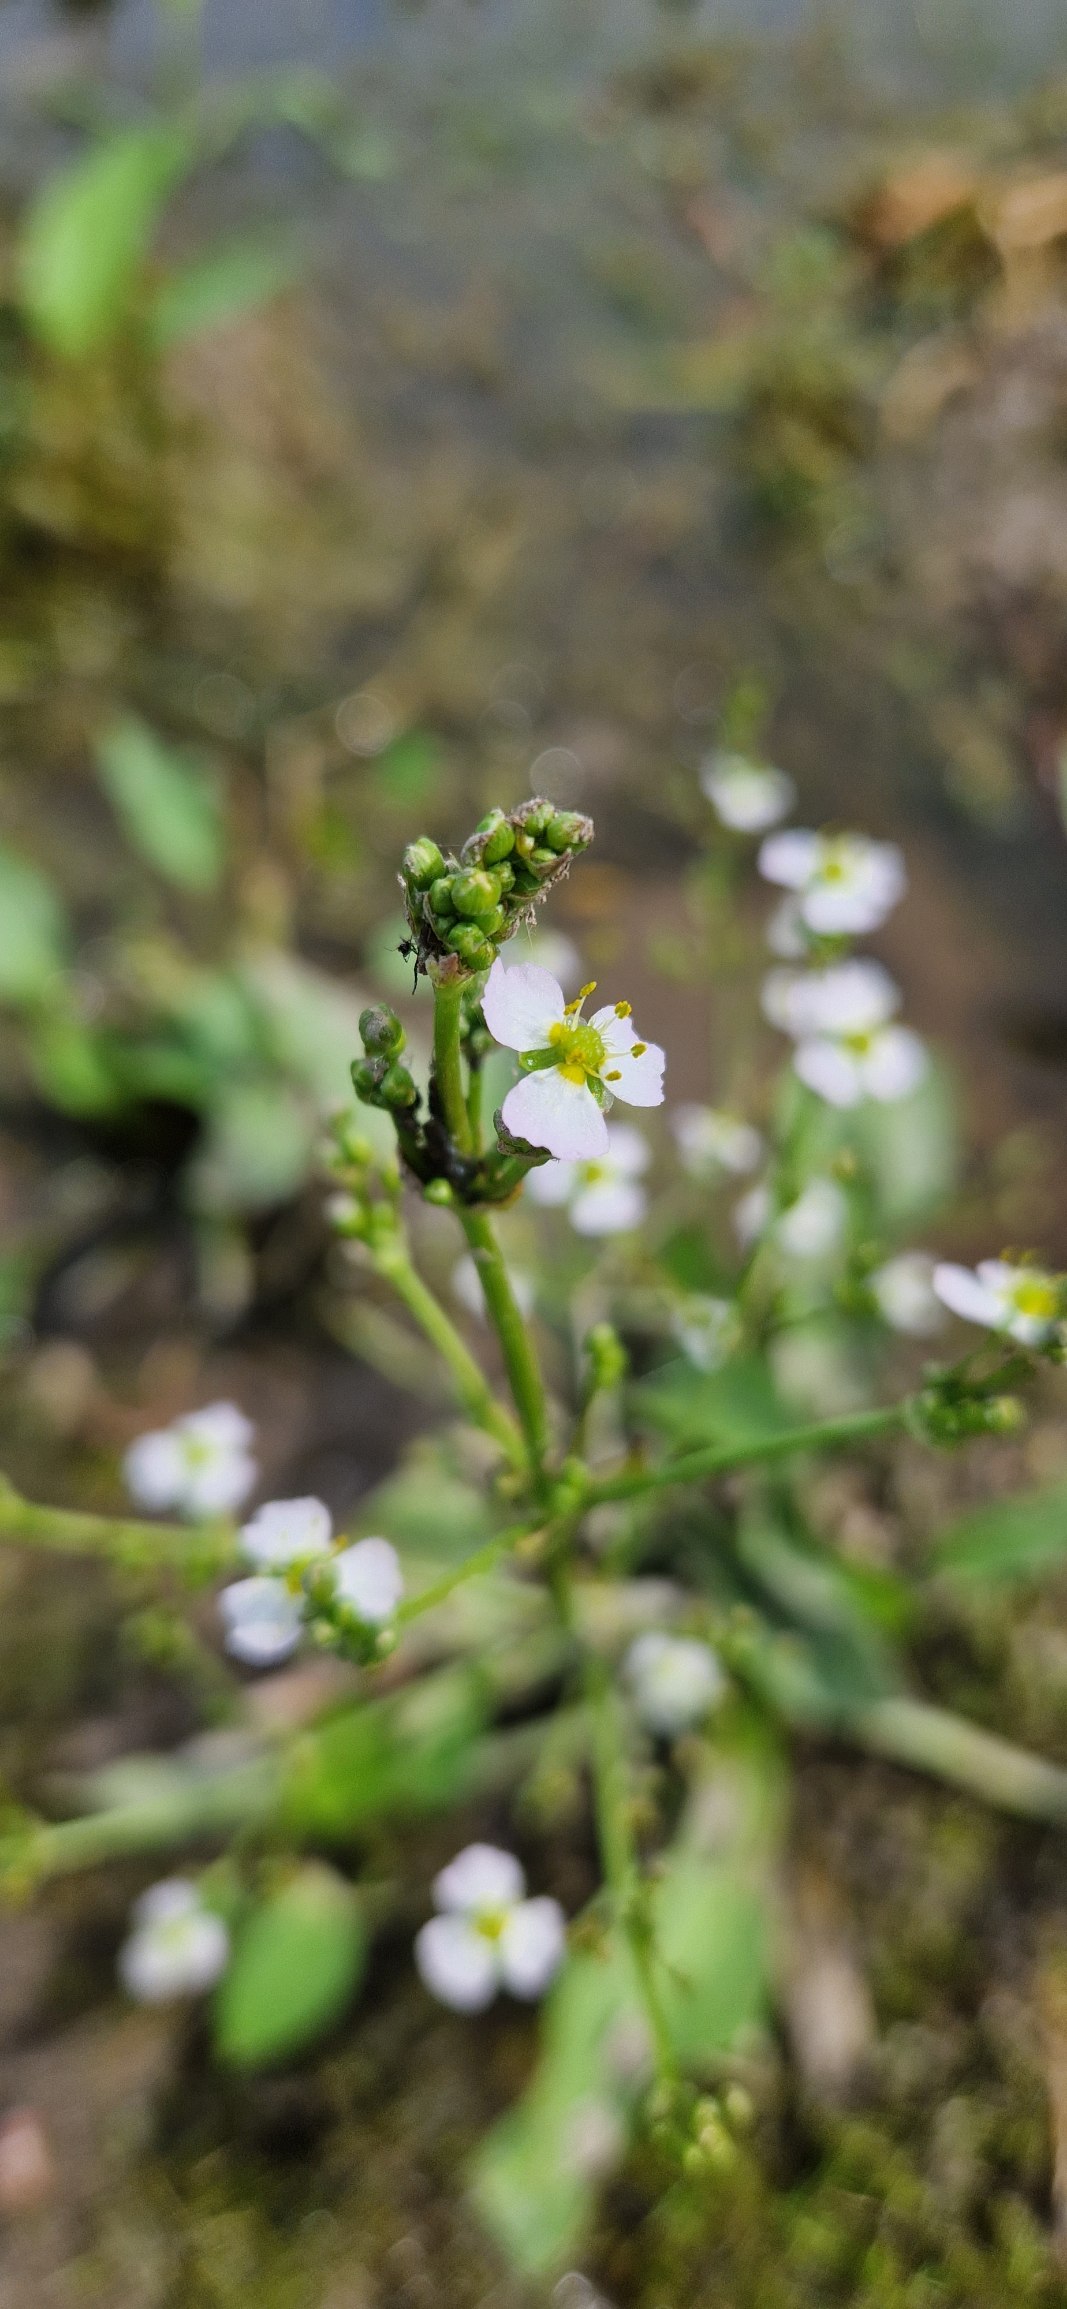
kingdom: Plantae
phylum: Tracheophyta
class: Liliopsida
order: Alismatales
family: Alismataceae
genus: Alisma
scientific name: Alisma plantago-aquatica
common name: Vejbred-skeblad
